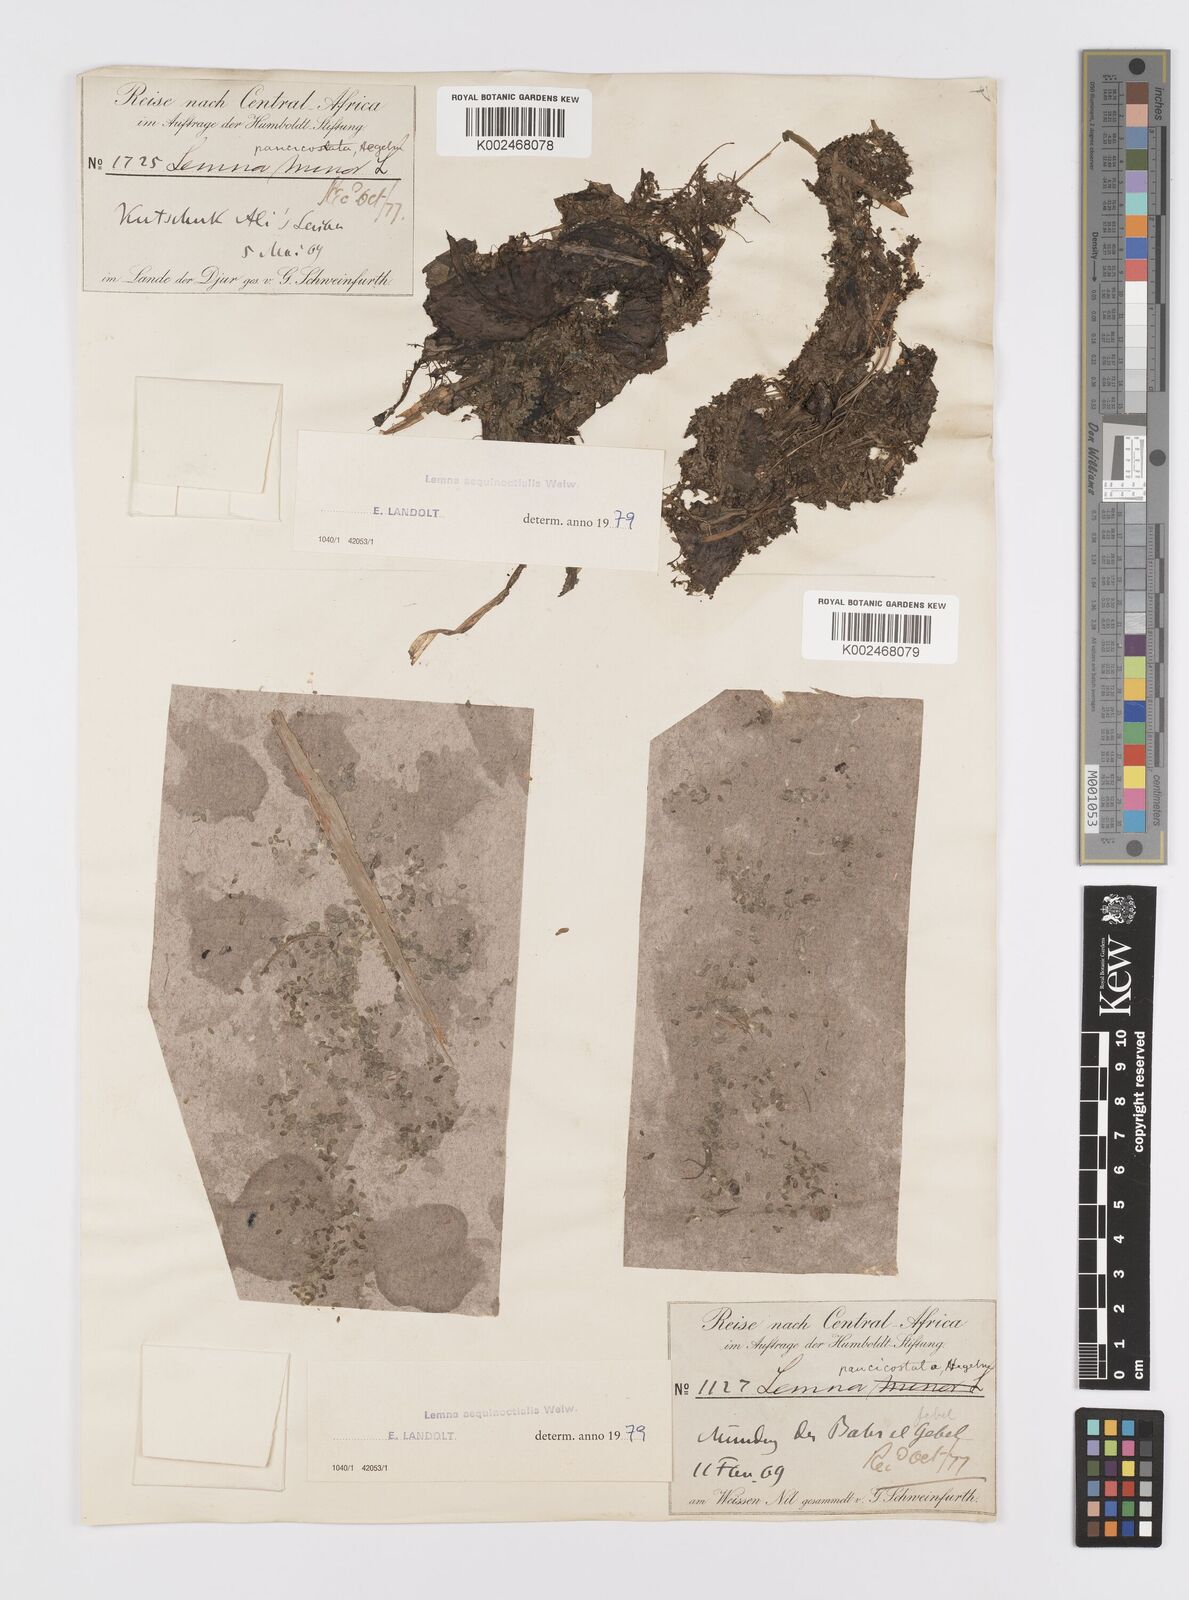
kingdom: Plantae
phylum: Tracheophyta
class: Liliopsida
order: Alismatales
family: Araceae
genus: Lemna
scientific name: Lemna aequinoctialis
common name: Duckweed
